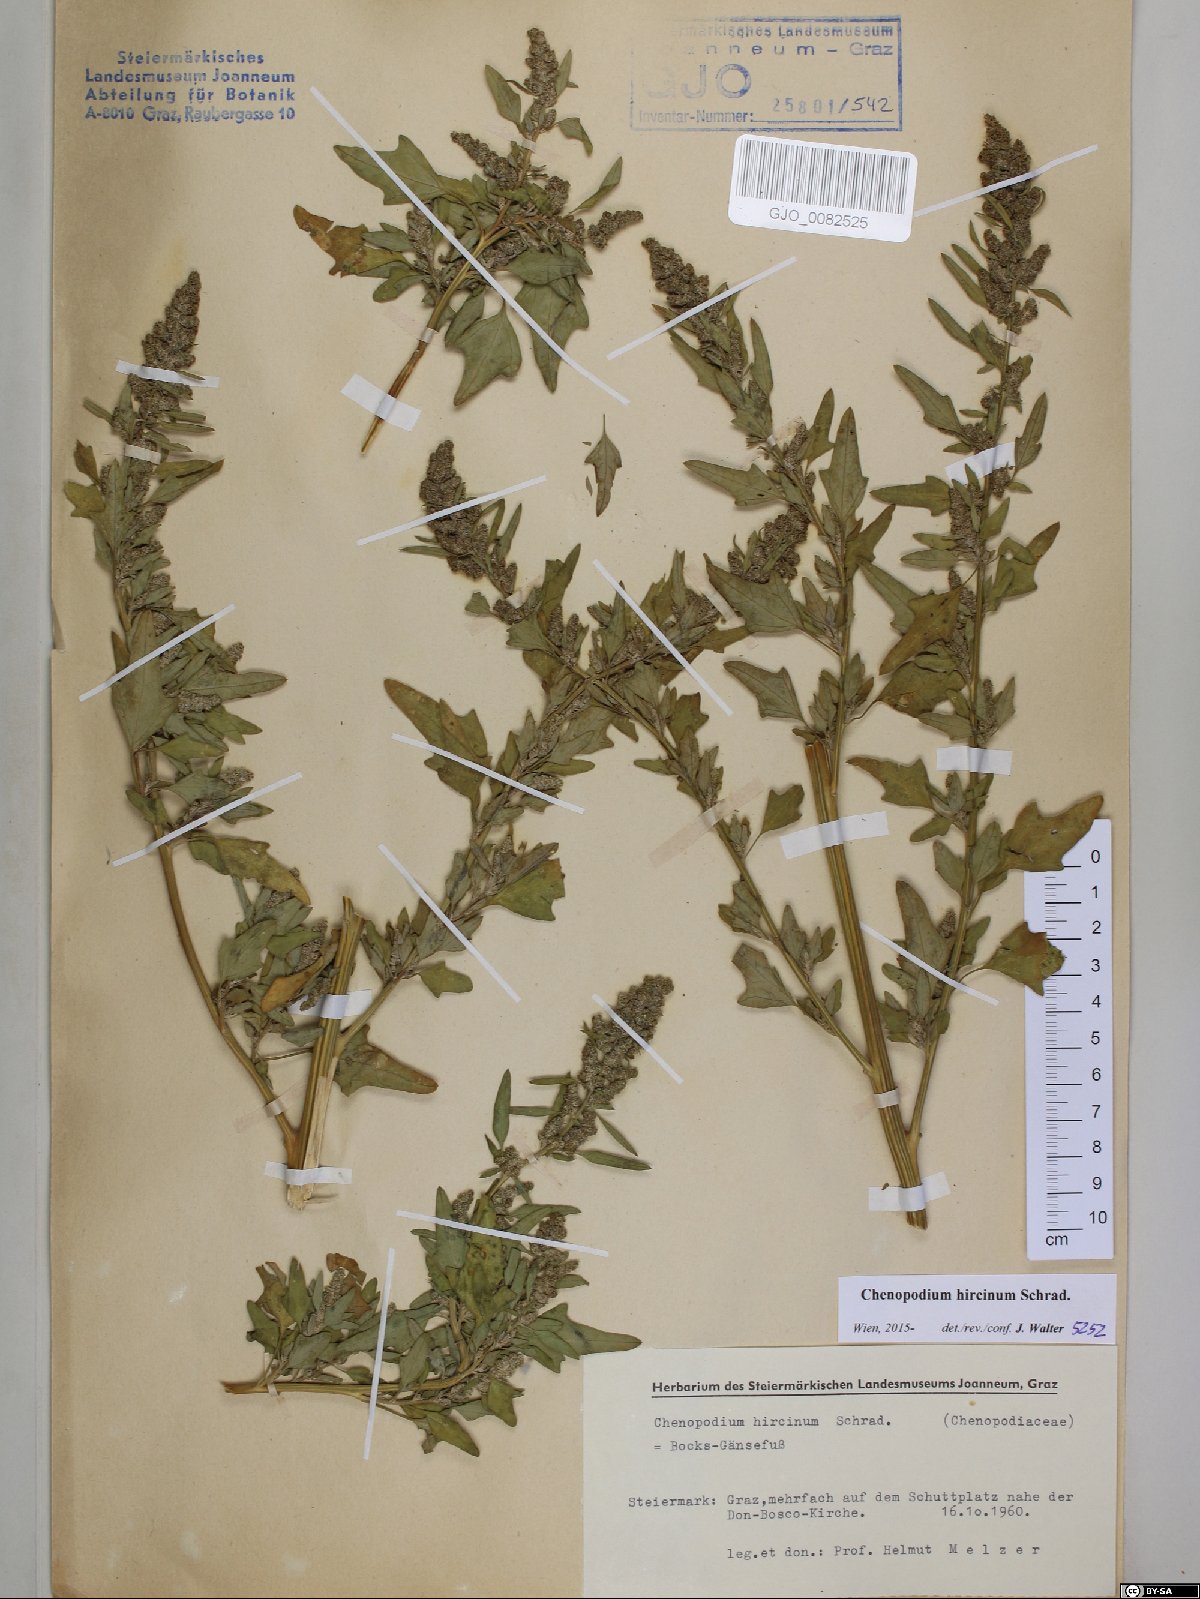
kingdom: Plantae
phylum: Tracheophyta
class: Magnoliopsida
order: Caryophyllales
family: Amaranthaceae
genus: Chenopodium
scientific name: Chenopodium hircinum
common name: Foetid goosefoot
